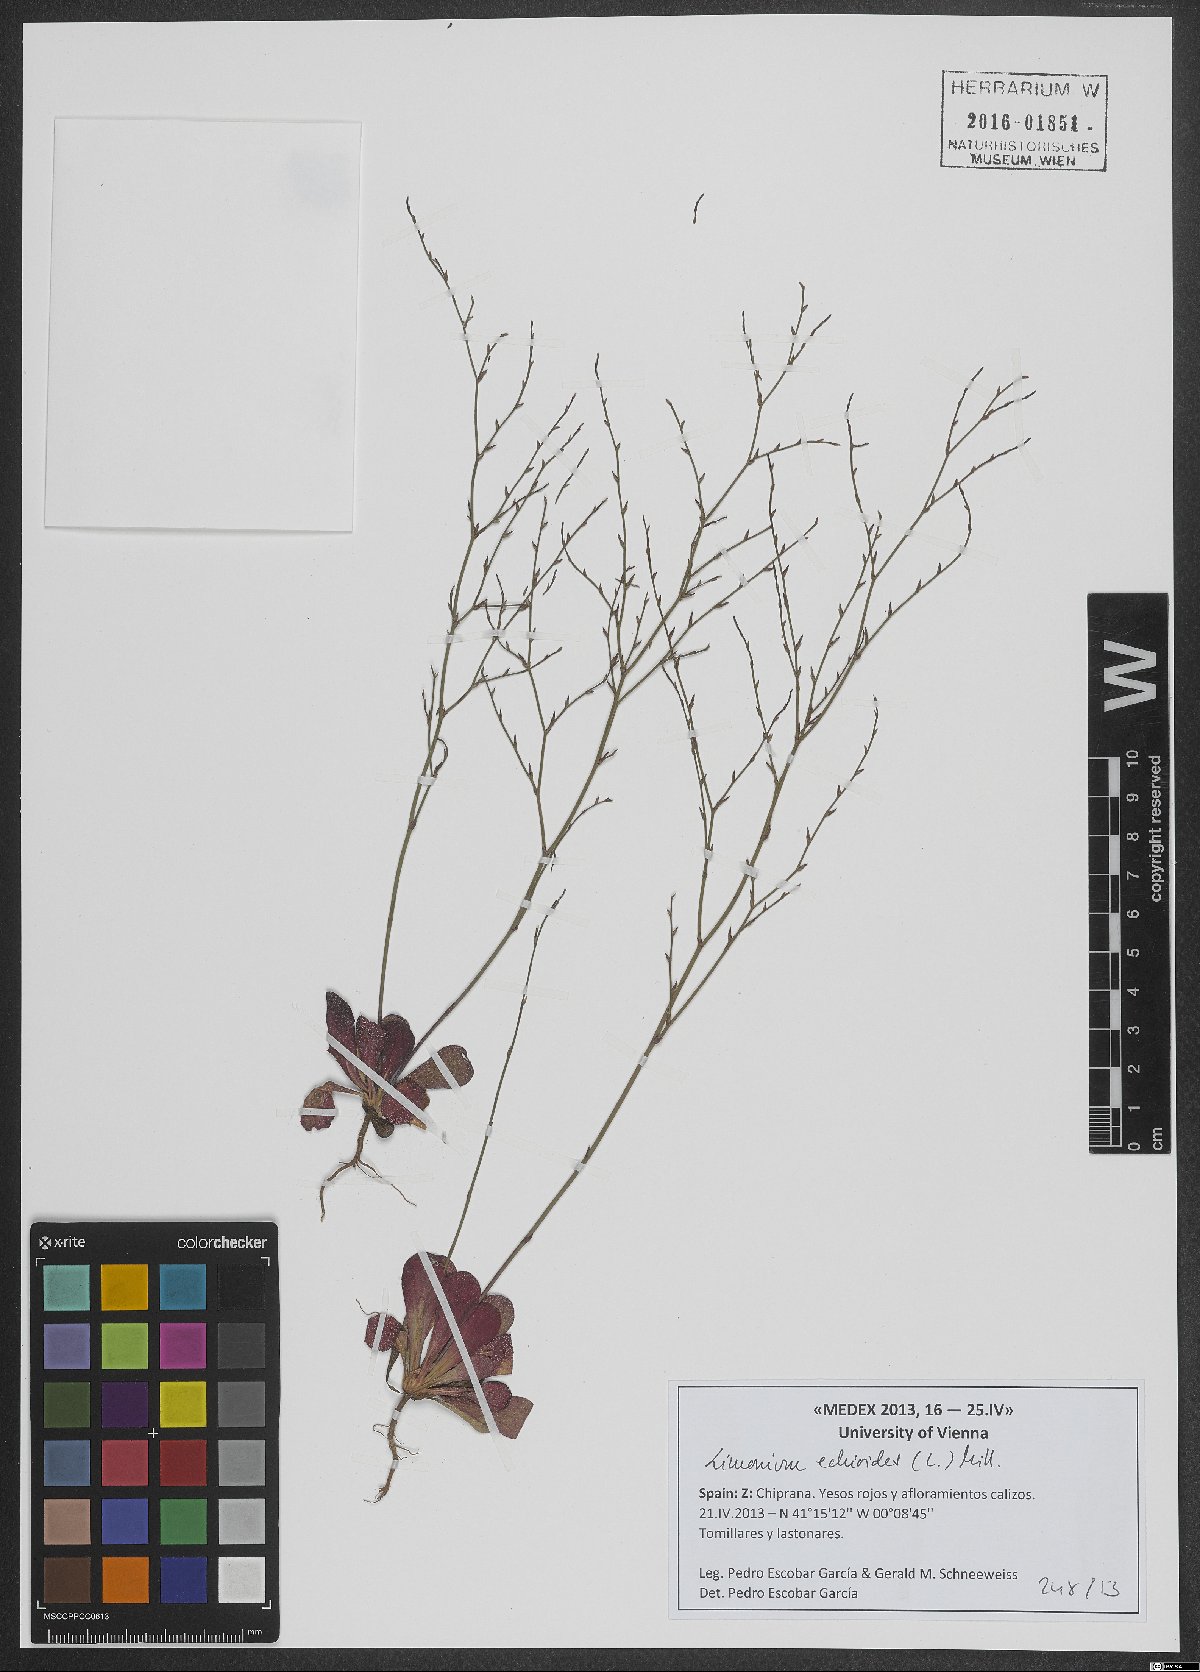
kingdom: Plantae
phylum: Tracheophyta
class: Magnoliopsida
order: Caryophyllales
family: Plumbaginaceae
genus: Limonium
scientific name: Limonium echioides
